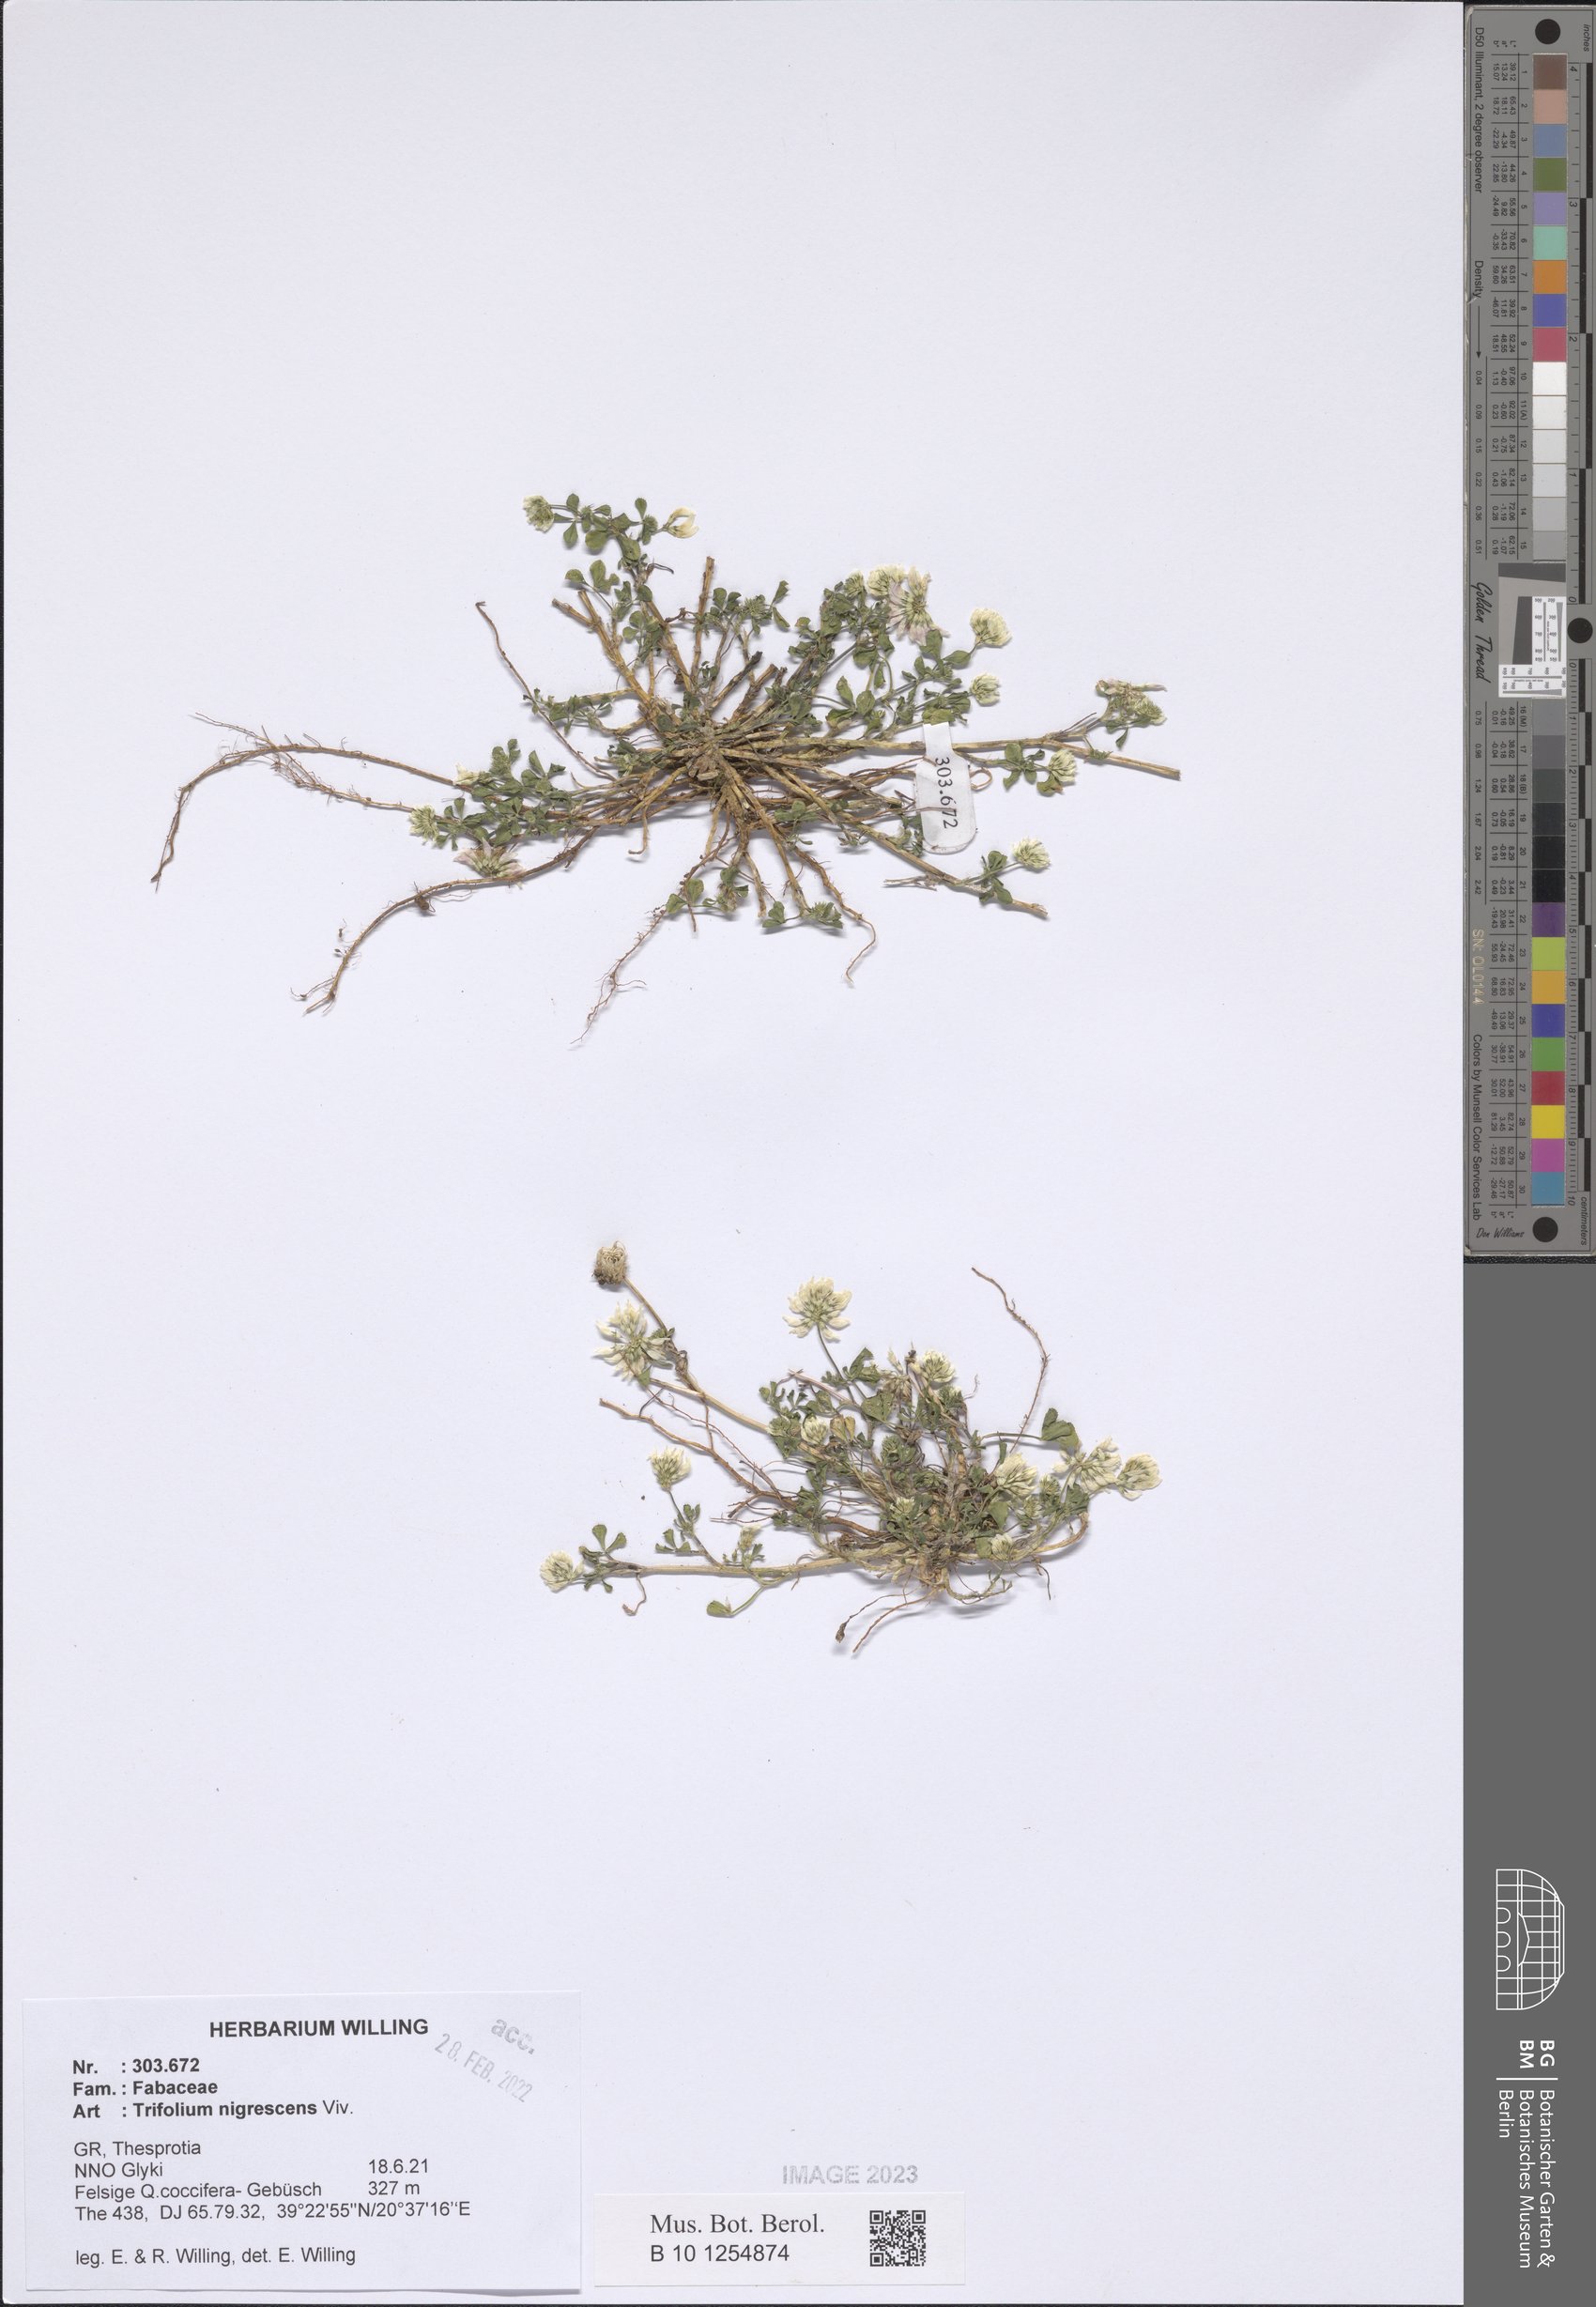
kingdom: Plantae
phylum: Tracheophyta
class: Magnoliopsida
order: Fabales
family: Fabaceae
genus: Trifolium
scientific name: Trifolium nigrescens
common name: Small white clover
